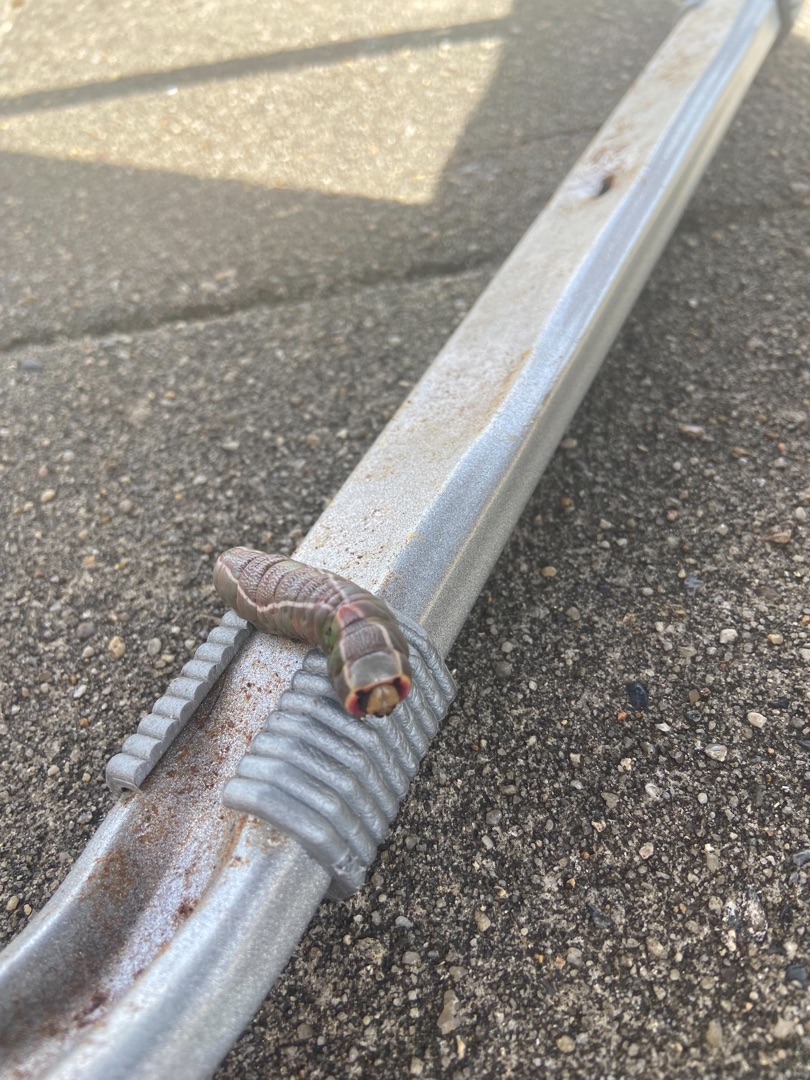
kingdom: Animalia
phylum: Arthropoda
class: Insecta
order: Lepidoptera
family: Notodontidae
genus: Cerura
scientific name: Cerura vinula
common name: Hermelinskåbe
